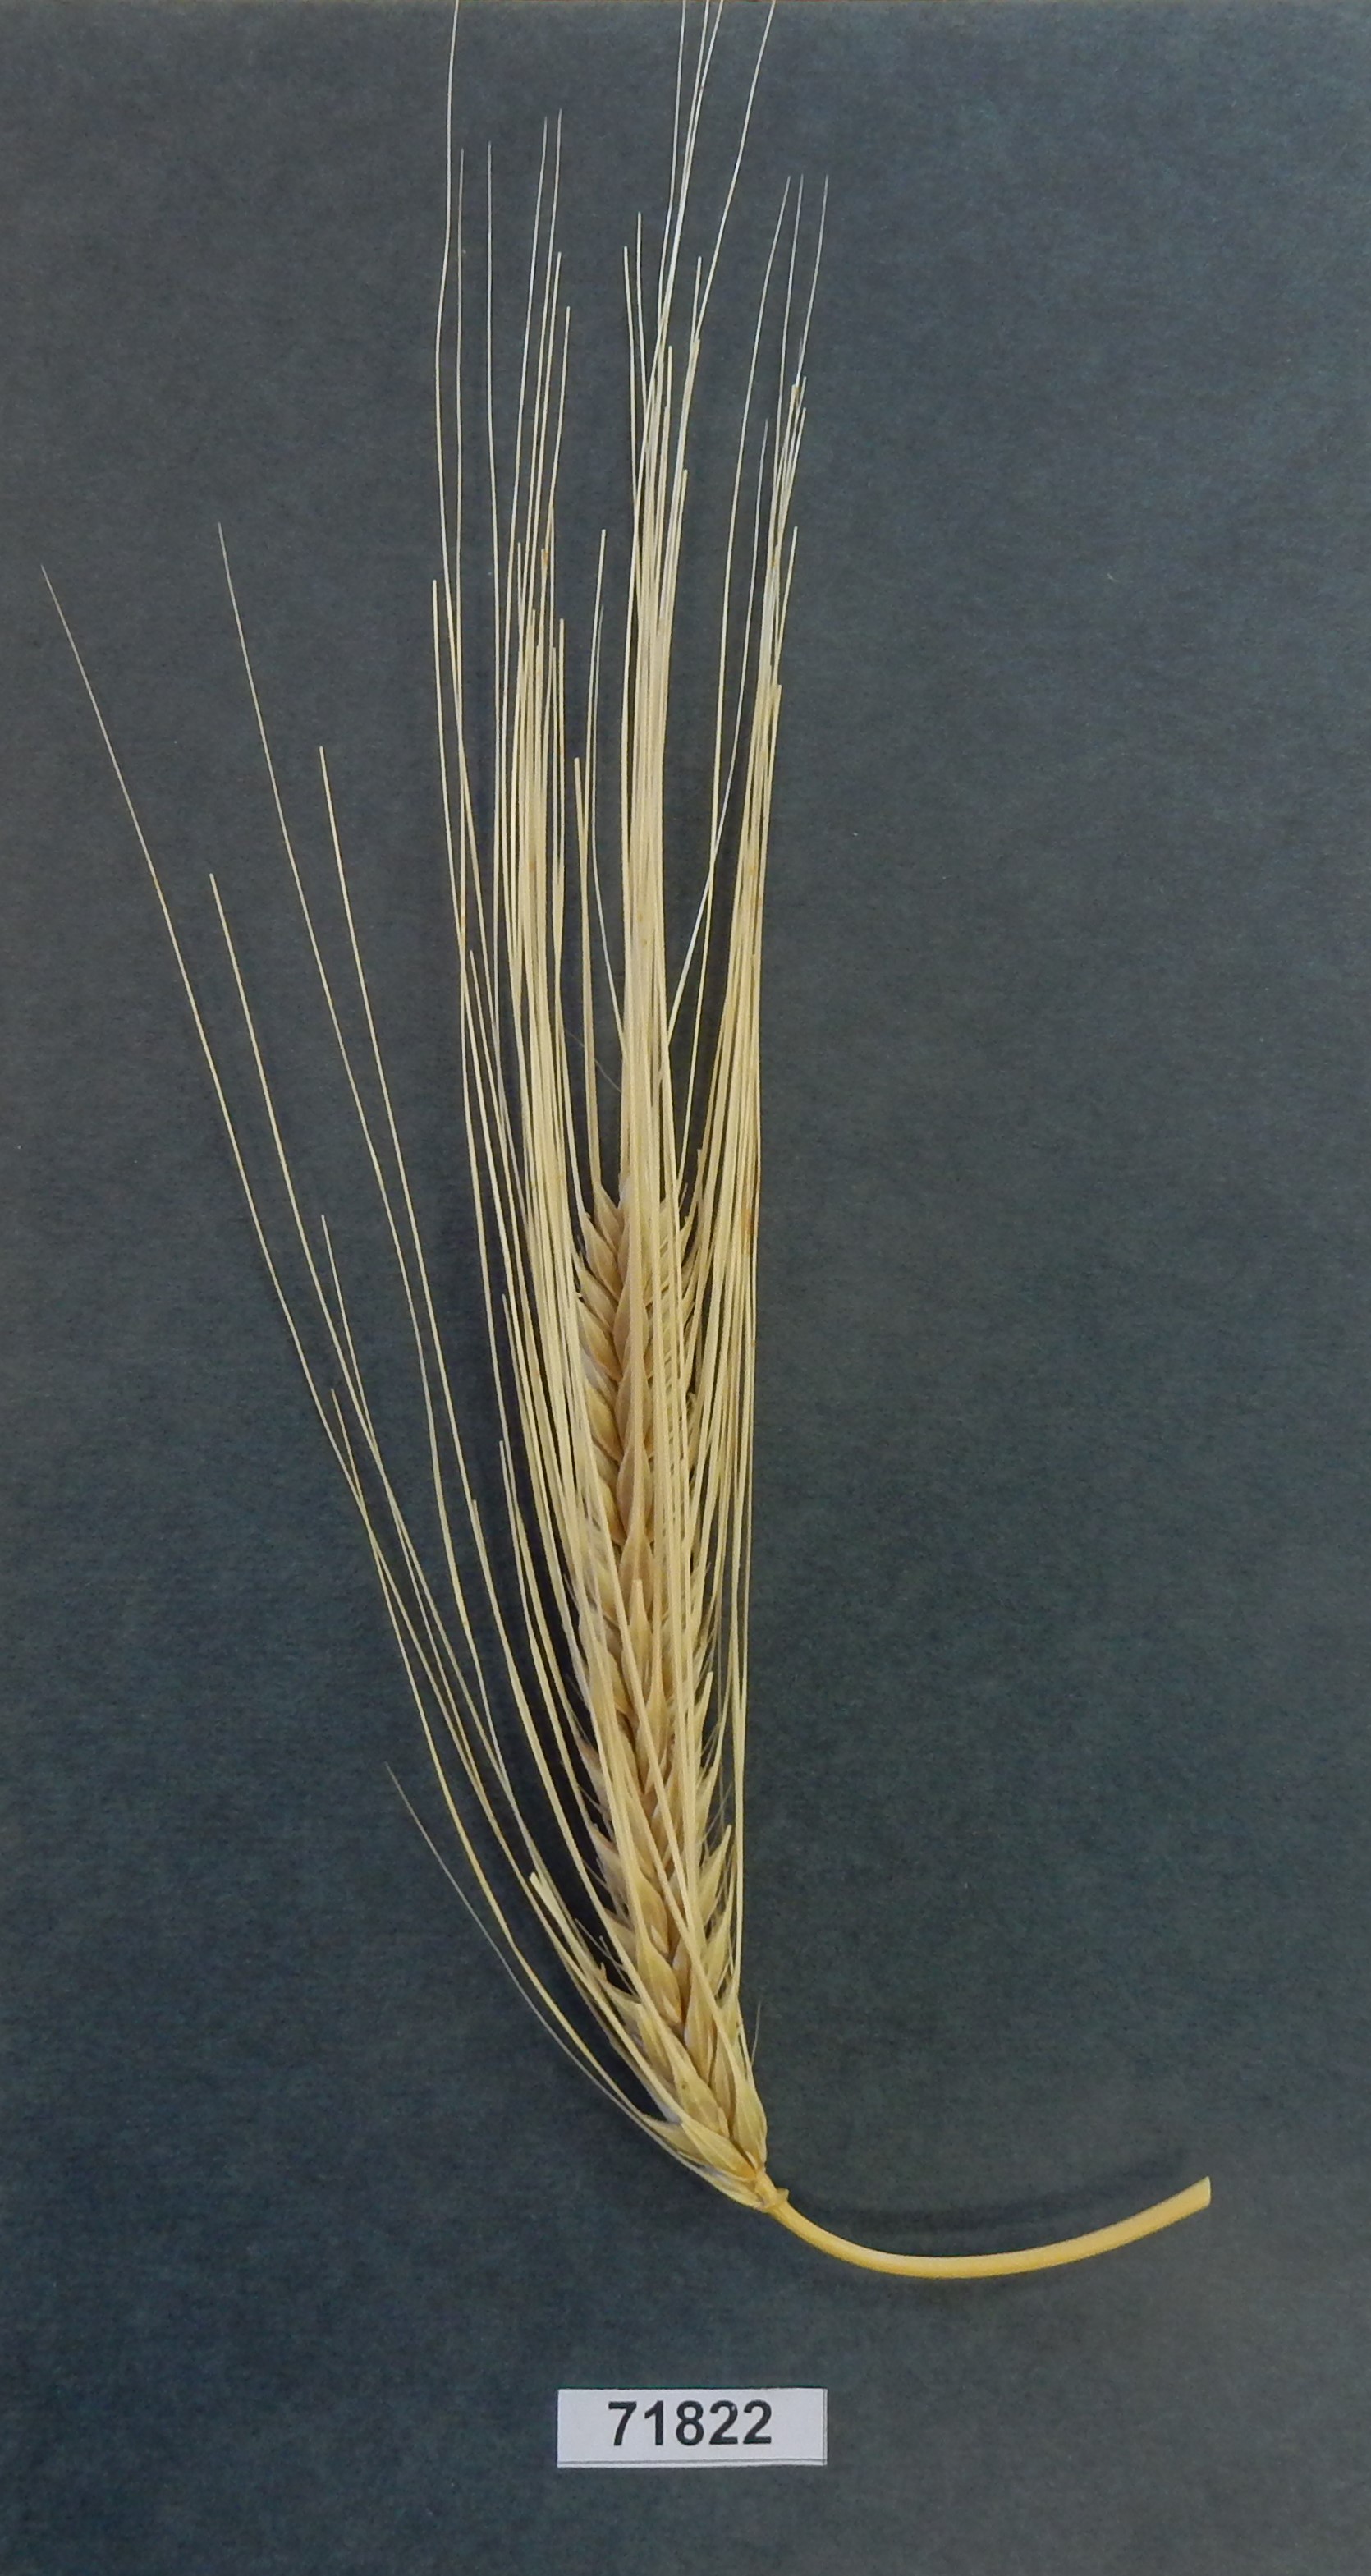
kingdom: Plantae
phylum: Tracheophyta
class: Liliopsida
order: Poales
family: Poaceae
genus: Hordeum
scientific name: Hordeum vulgare
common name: Barley
